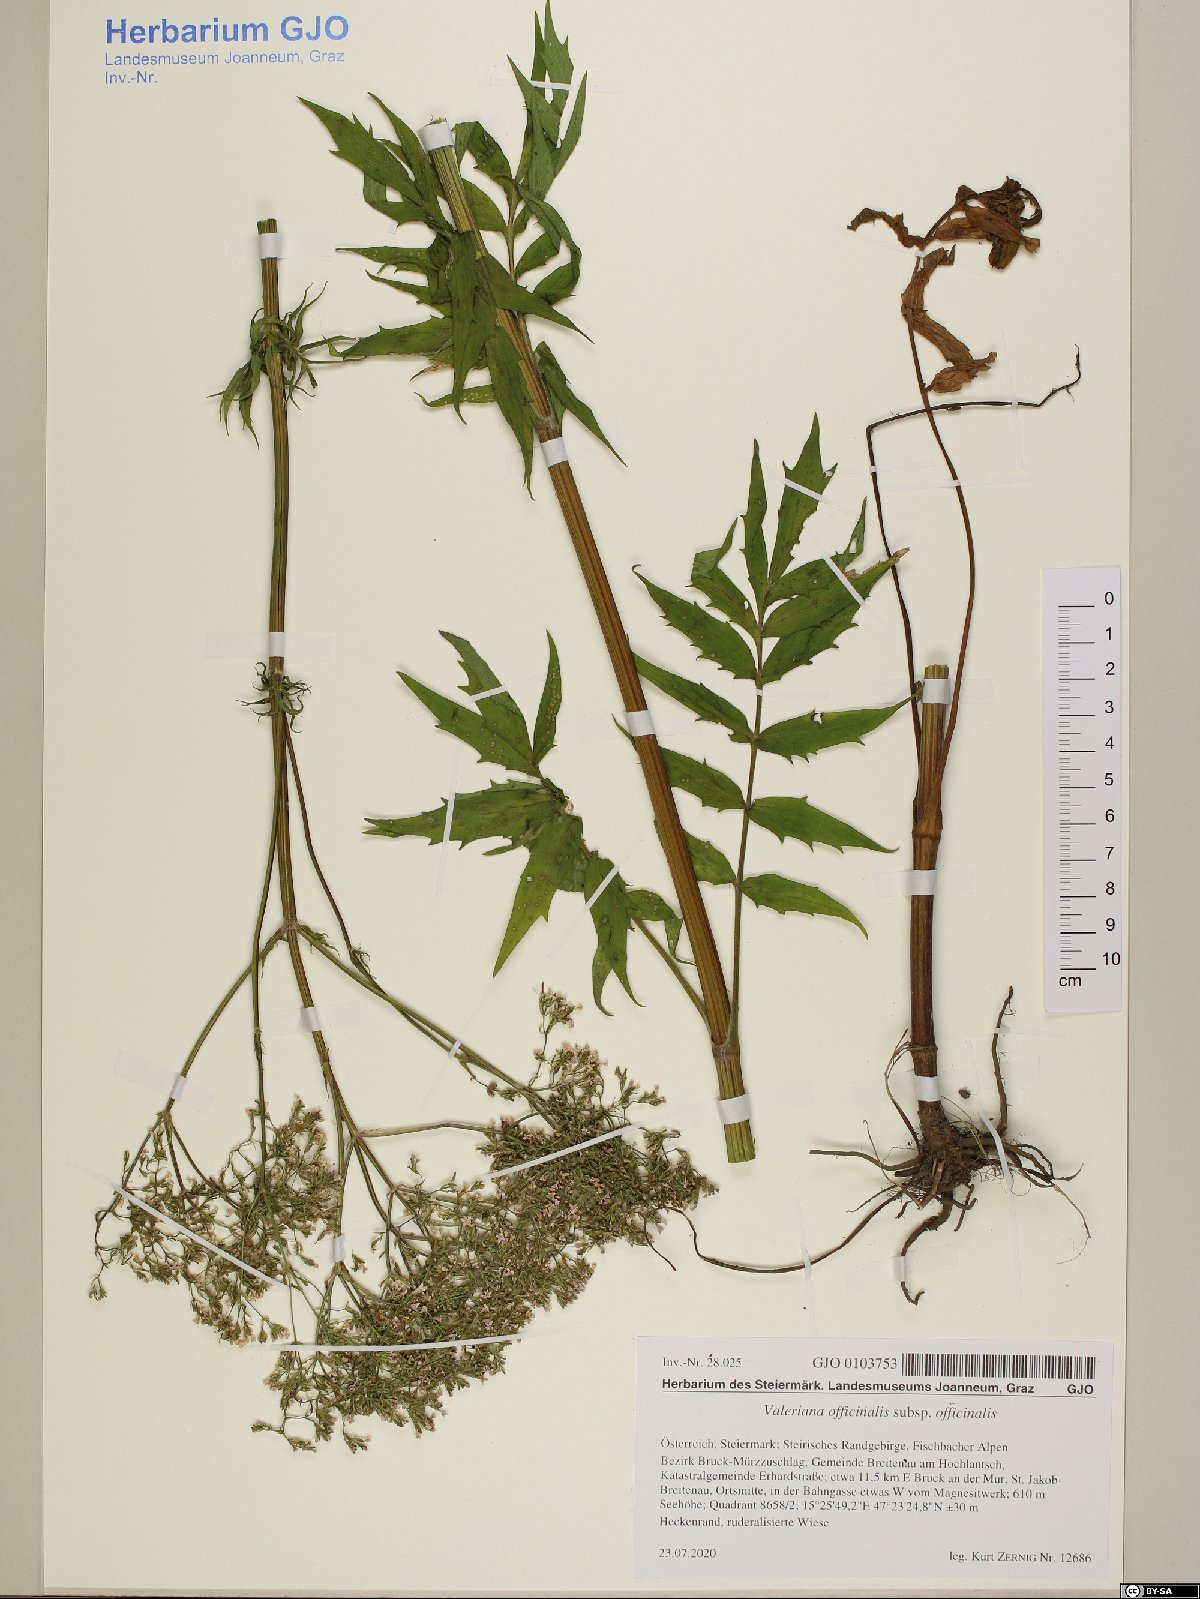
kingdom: Plantae
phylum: Tracheophyta
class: Magnoliopsida
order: Dipsacales
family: Caprifoliaceae
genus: Valeriana
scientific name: Valeriana officinalis
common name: Common valerian
